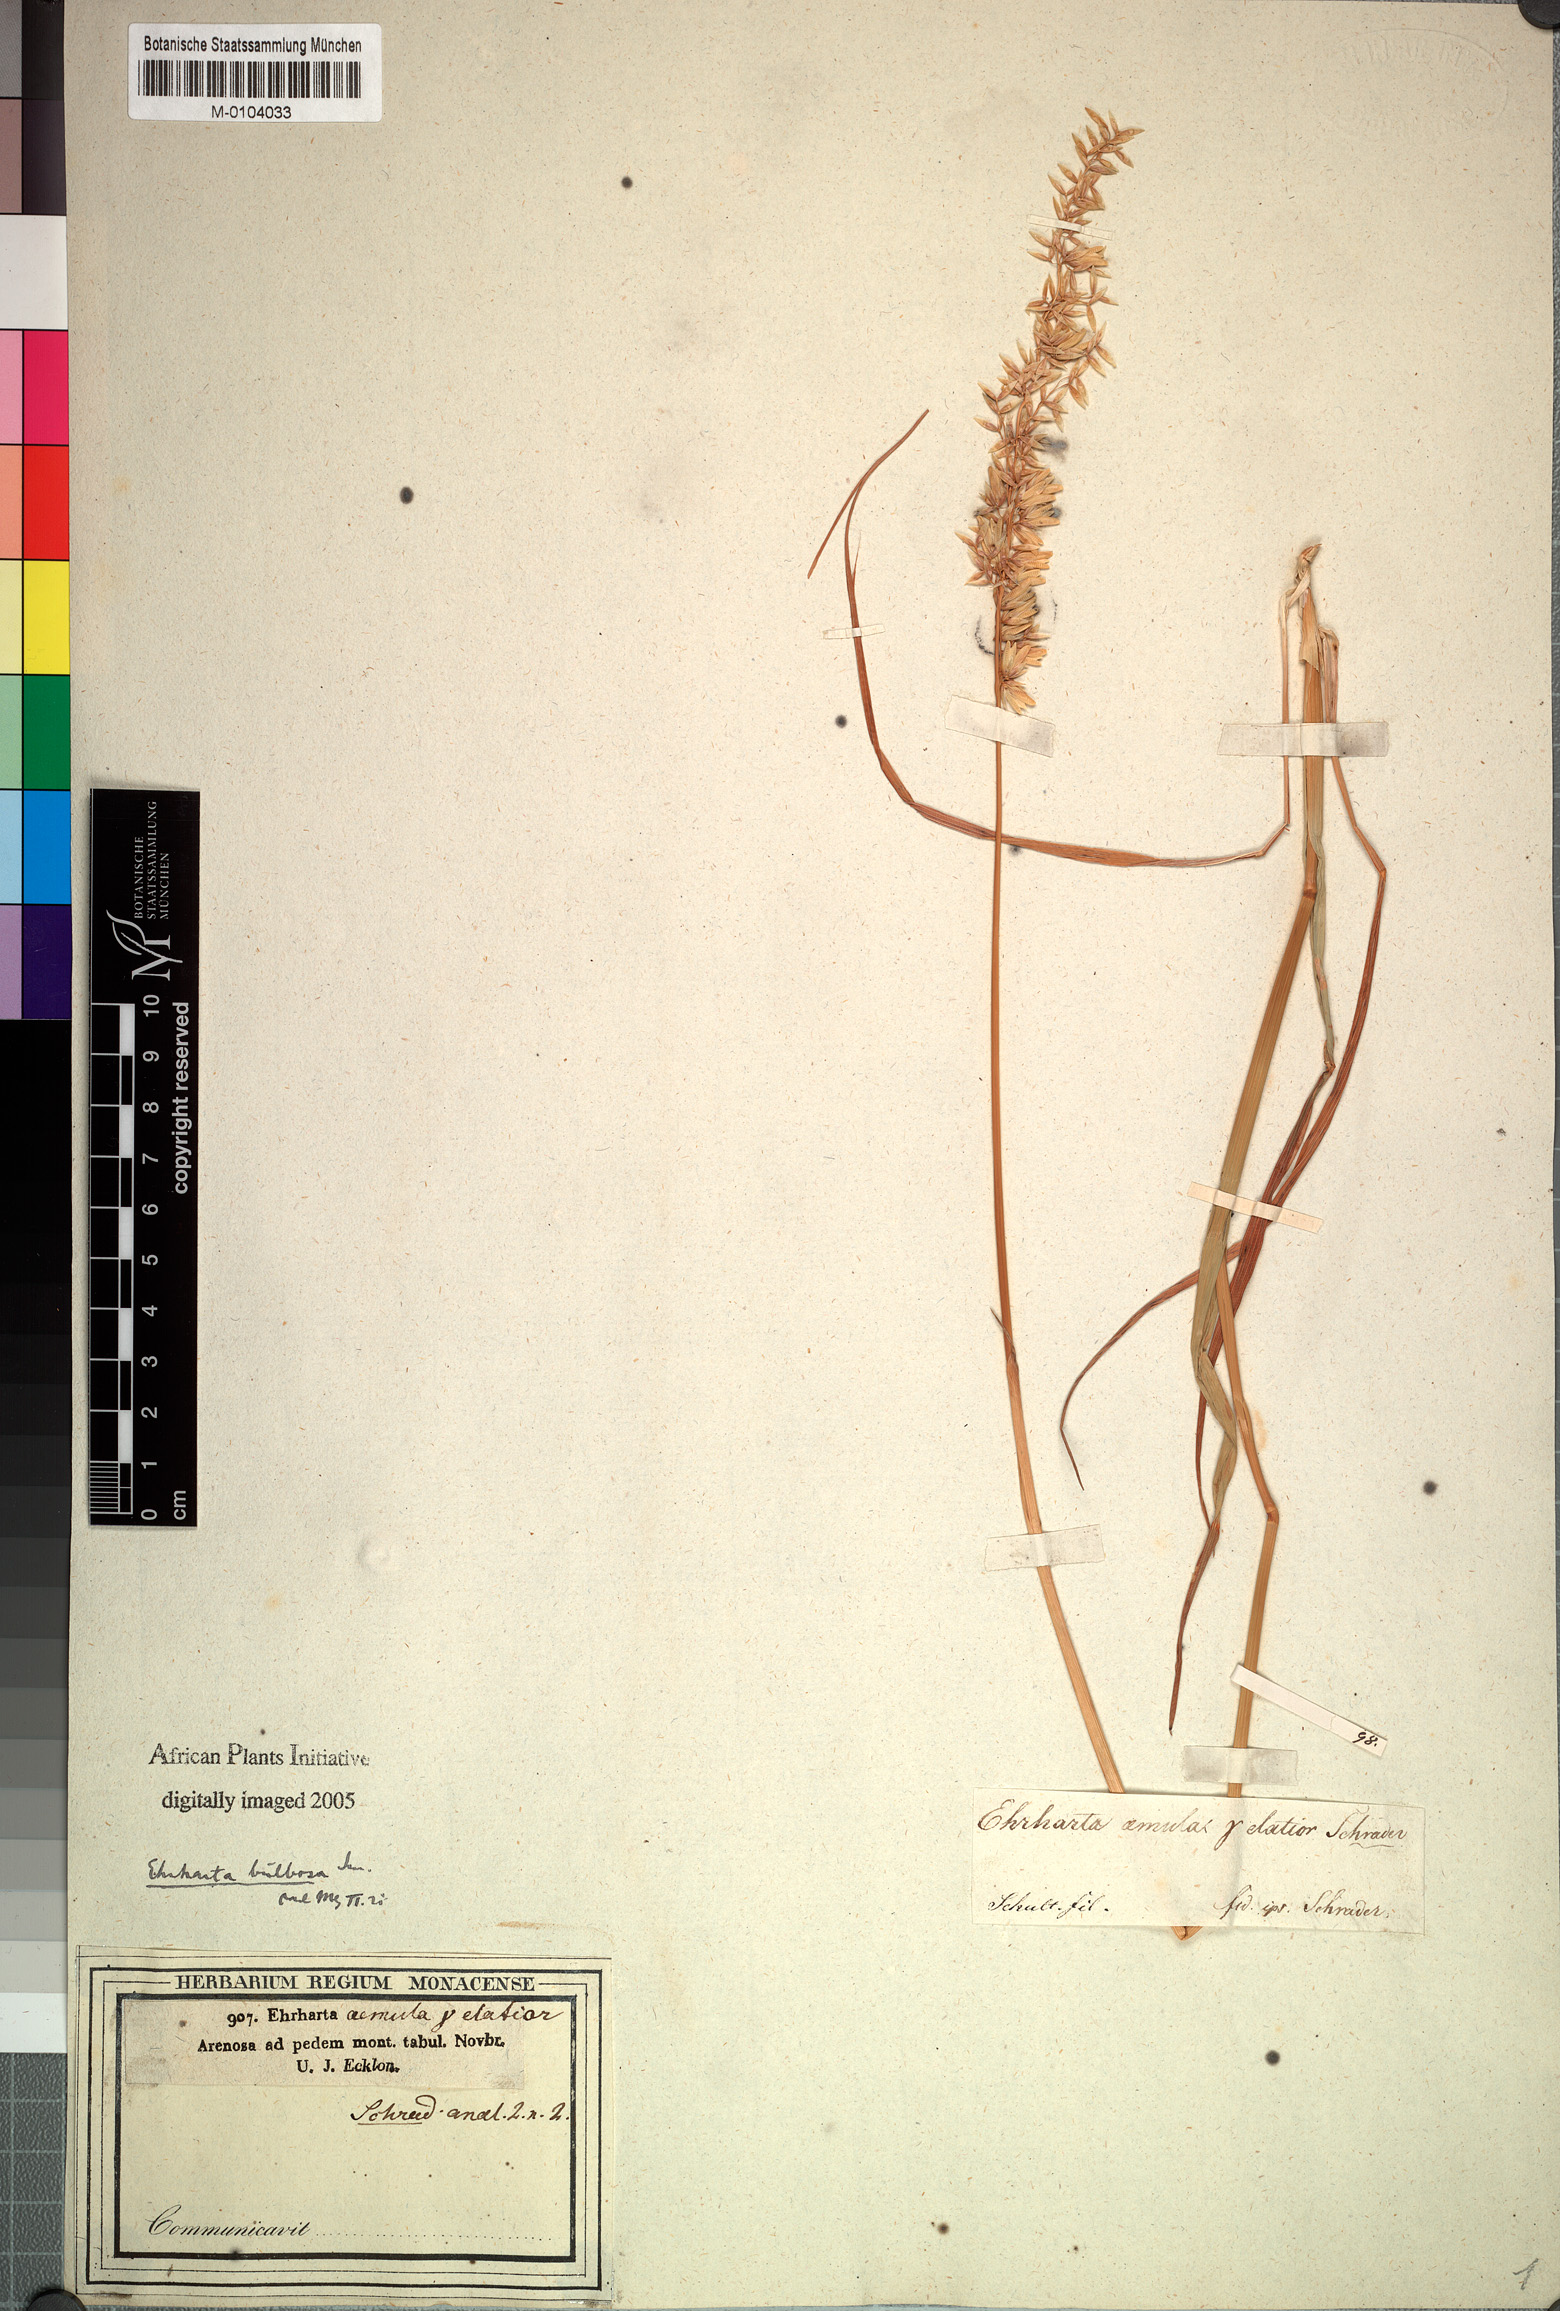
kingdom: Plantae
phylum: Tracheophyta
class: Liliopsida
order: Poales
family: Poaceae
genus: Ehrharta
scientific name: Ehrharta bulbosa
